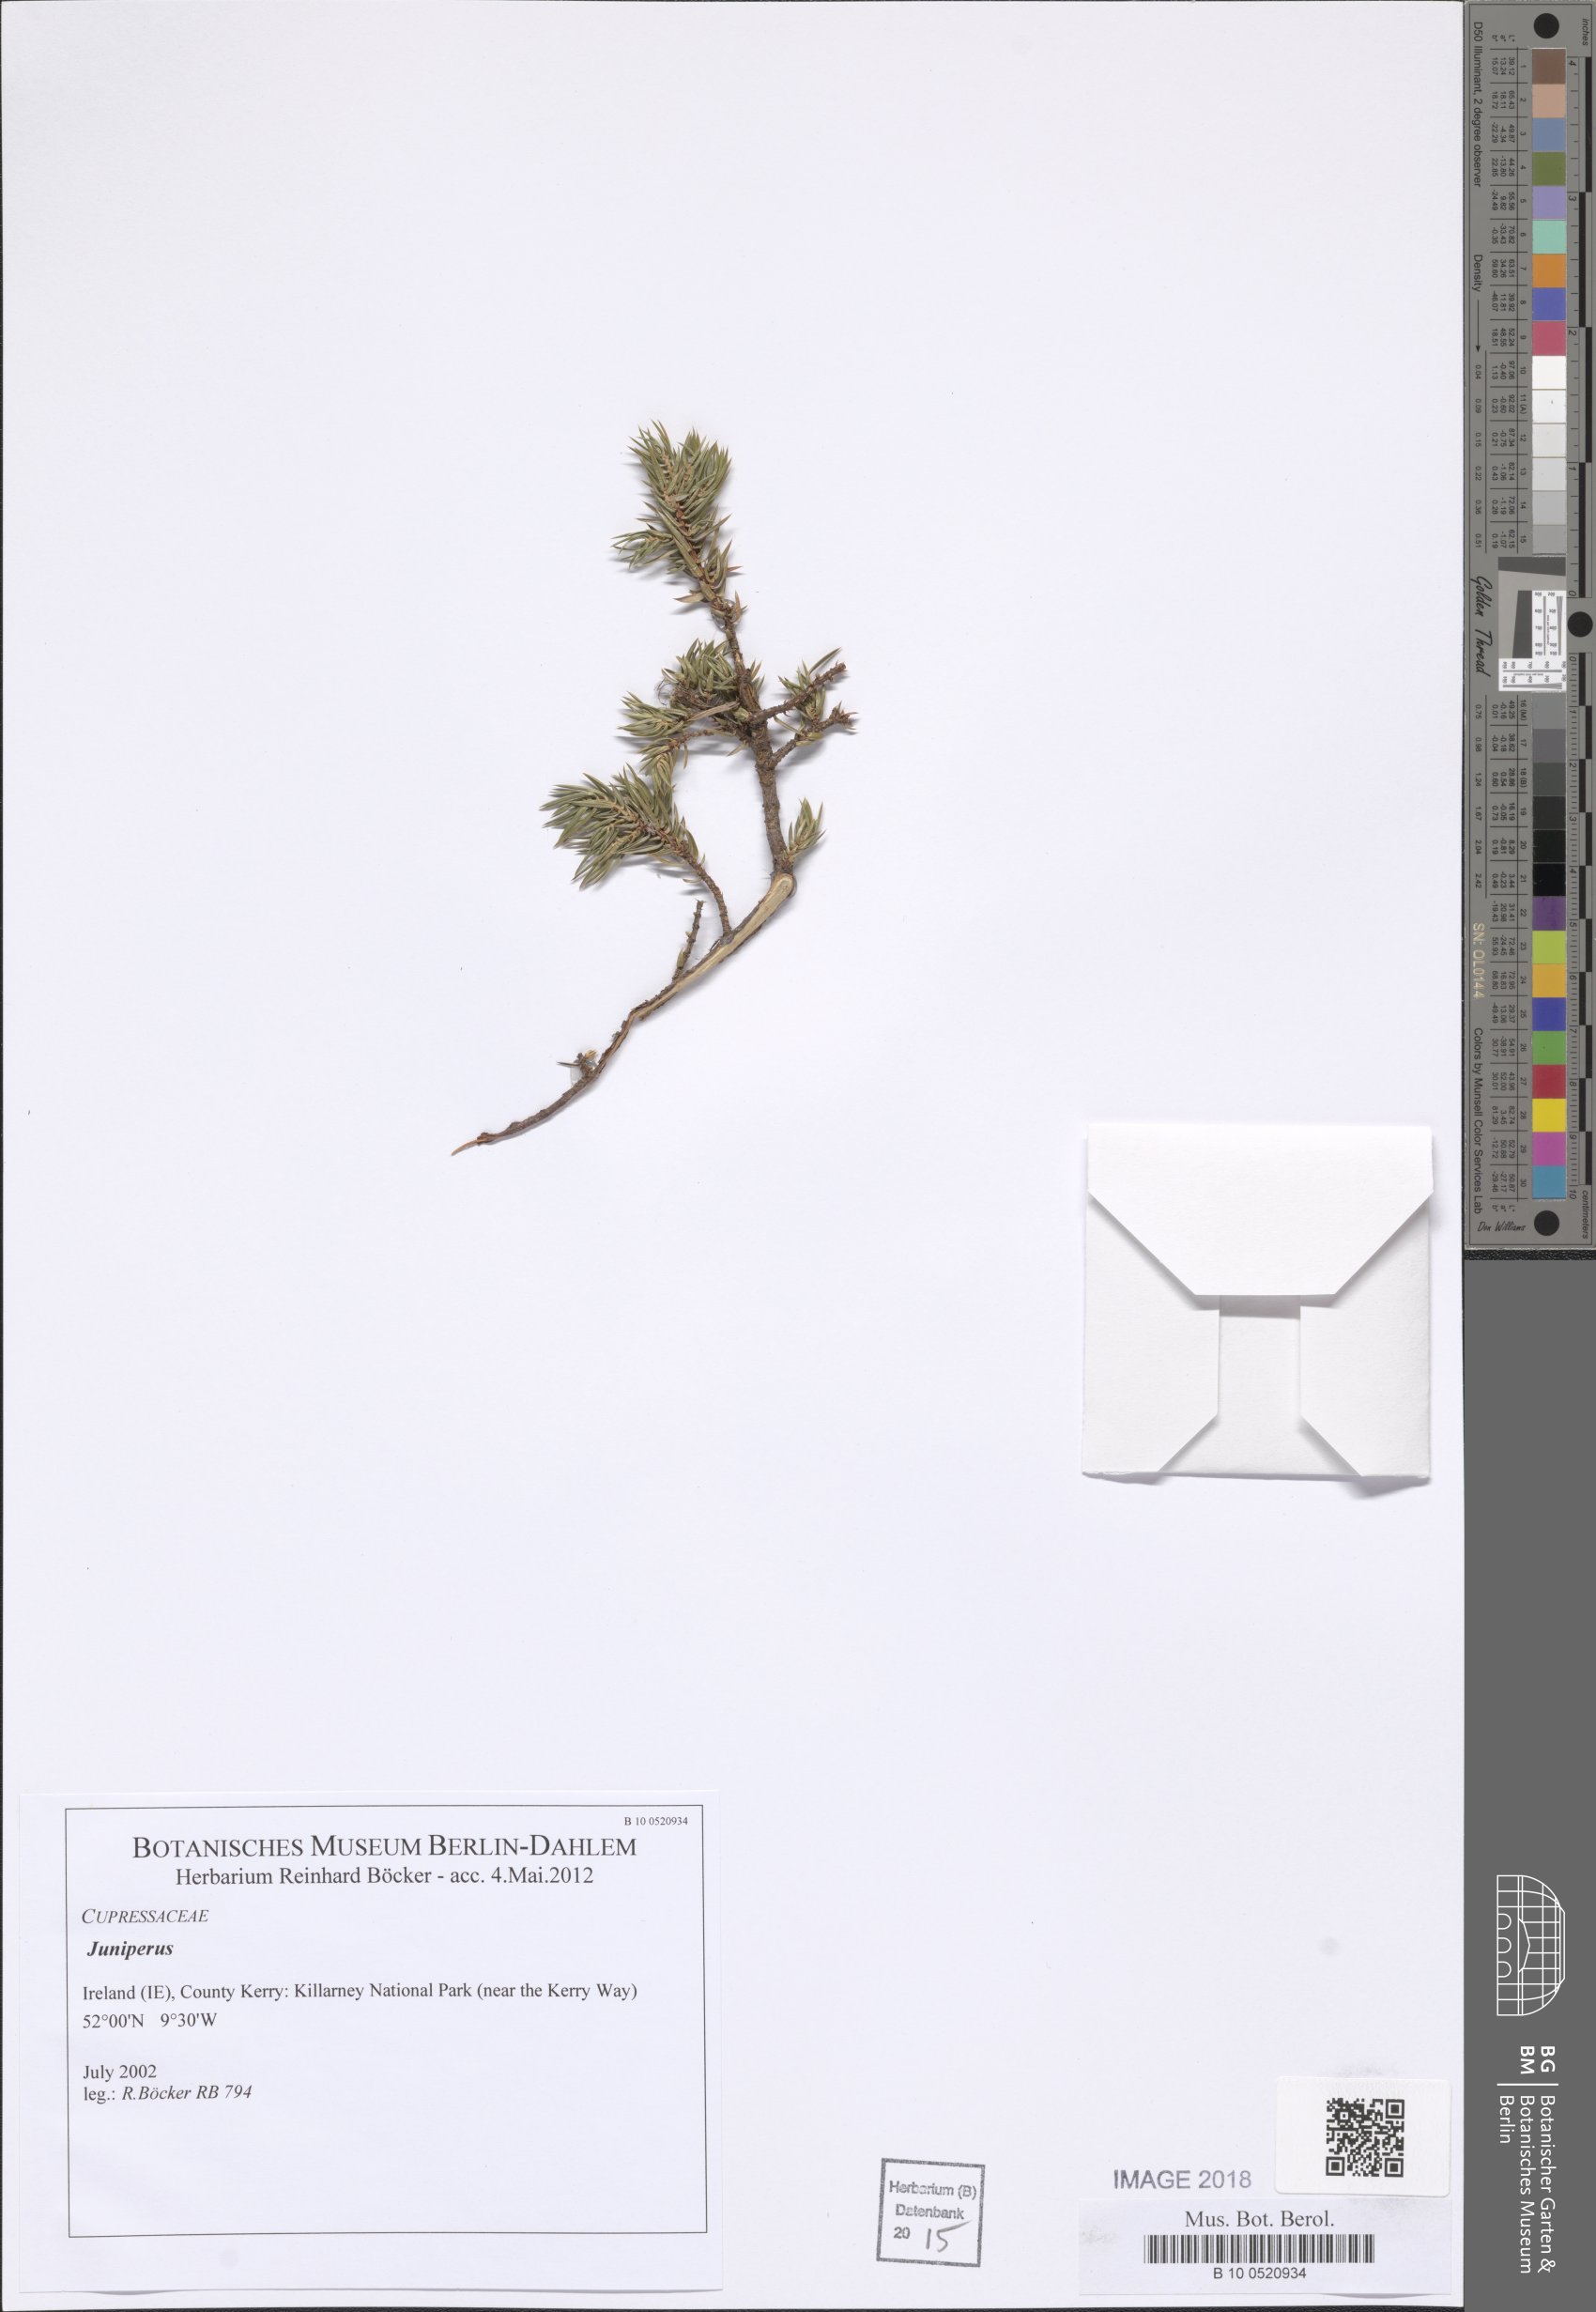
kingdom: Plantae
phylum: Tracheophyta
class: Pinopsida
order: Pinales
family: Cupressaceae
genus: Juniperus
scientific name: Juniperus
